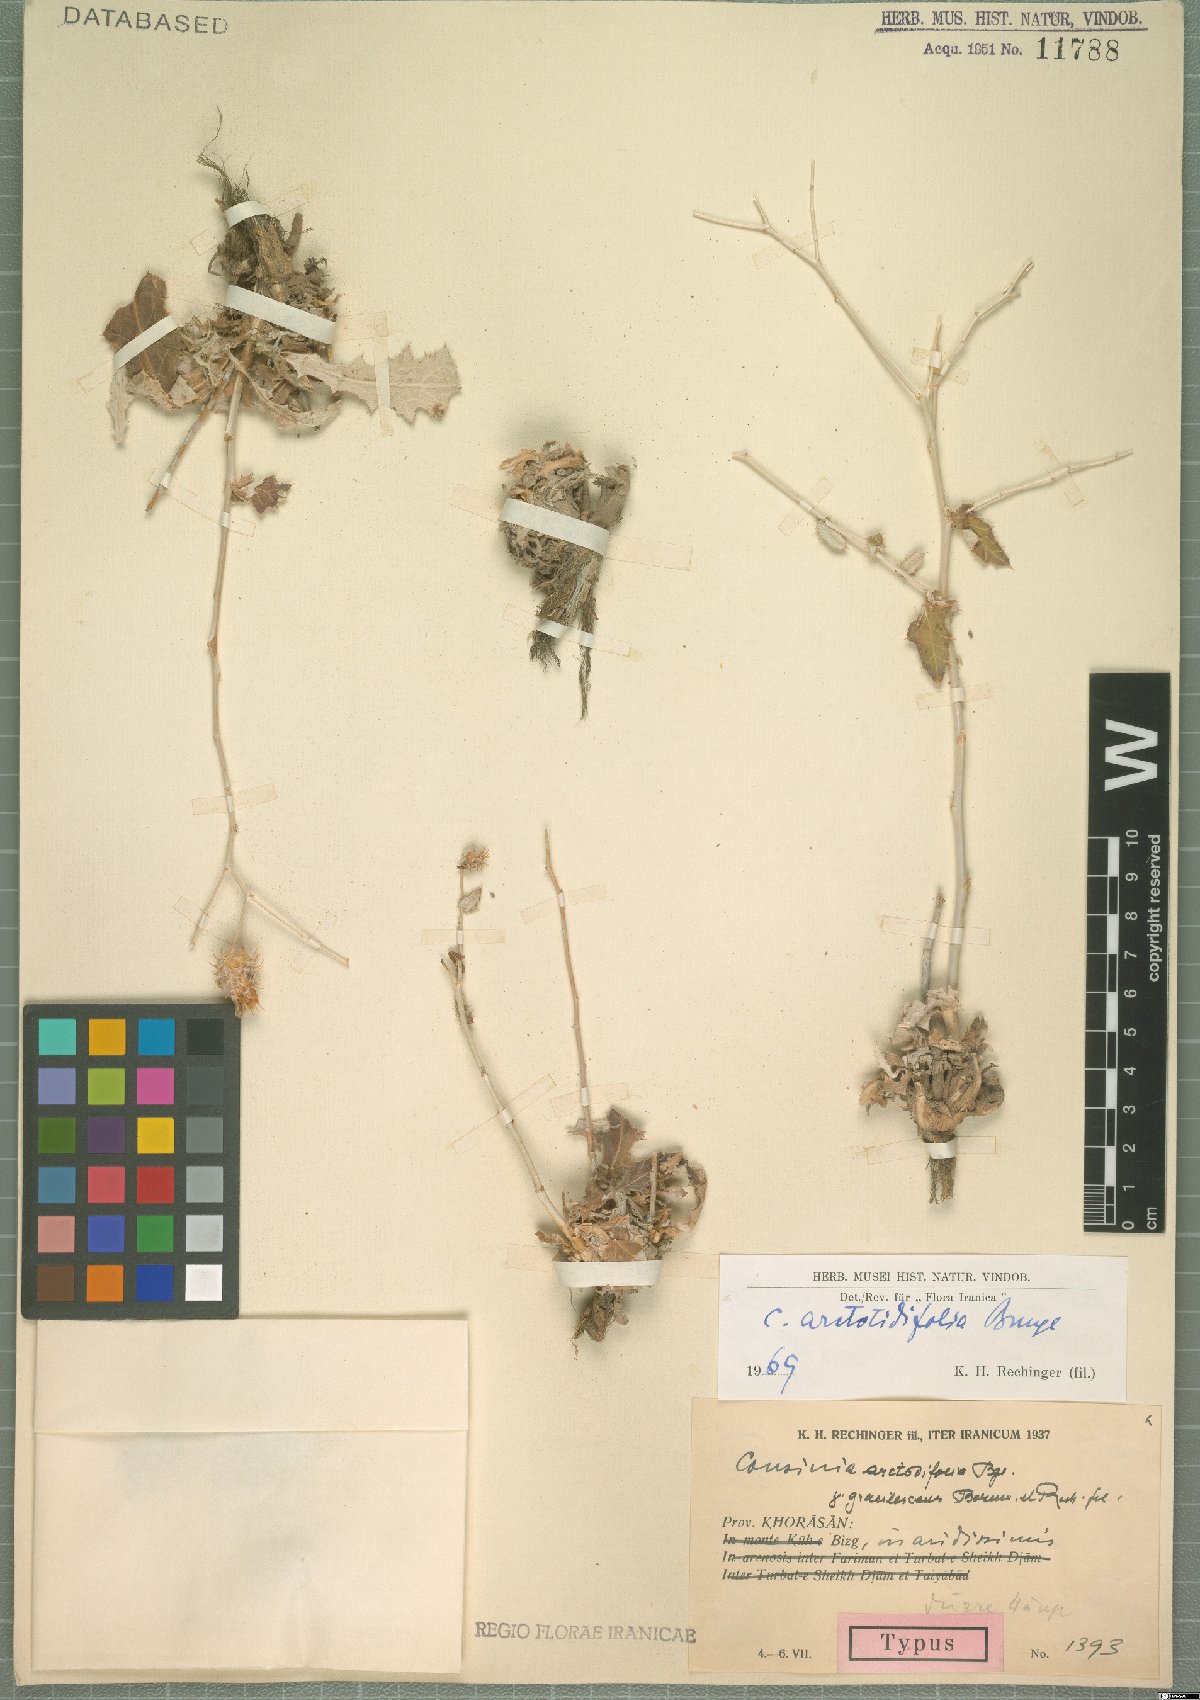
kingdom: Plantae
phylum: Tracheophyta
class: Magnoliopsida
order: Asterales
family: Asteraceae
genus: Cousinia
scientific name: Cousinia arctotidifolia
